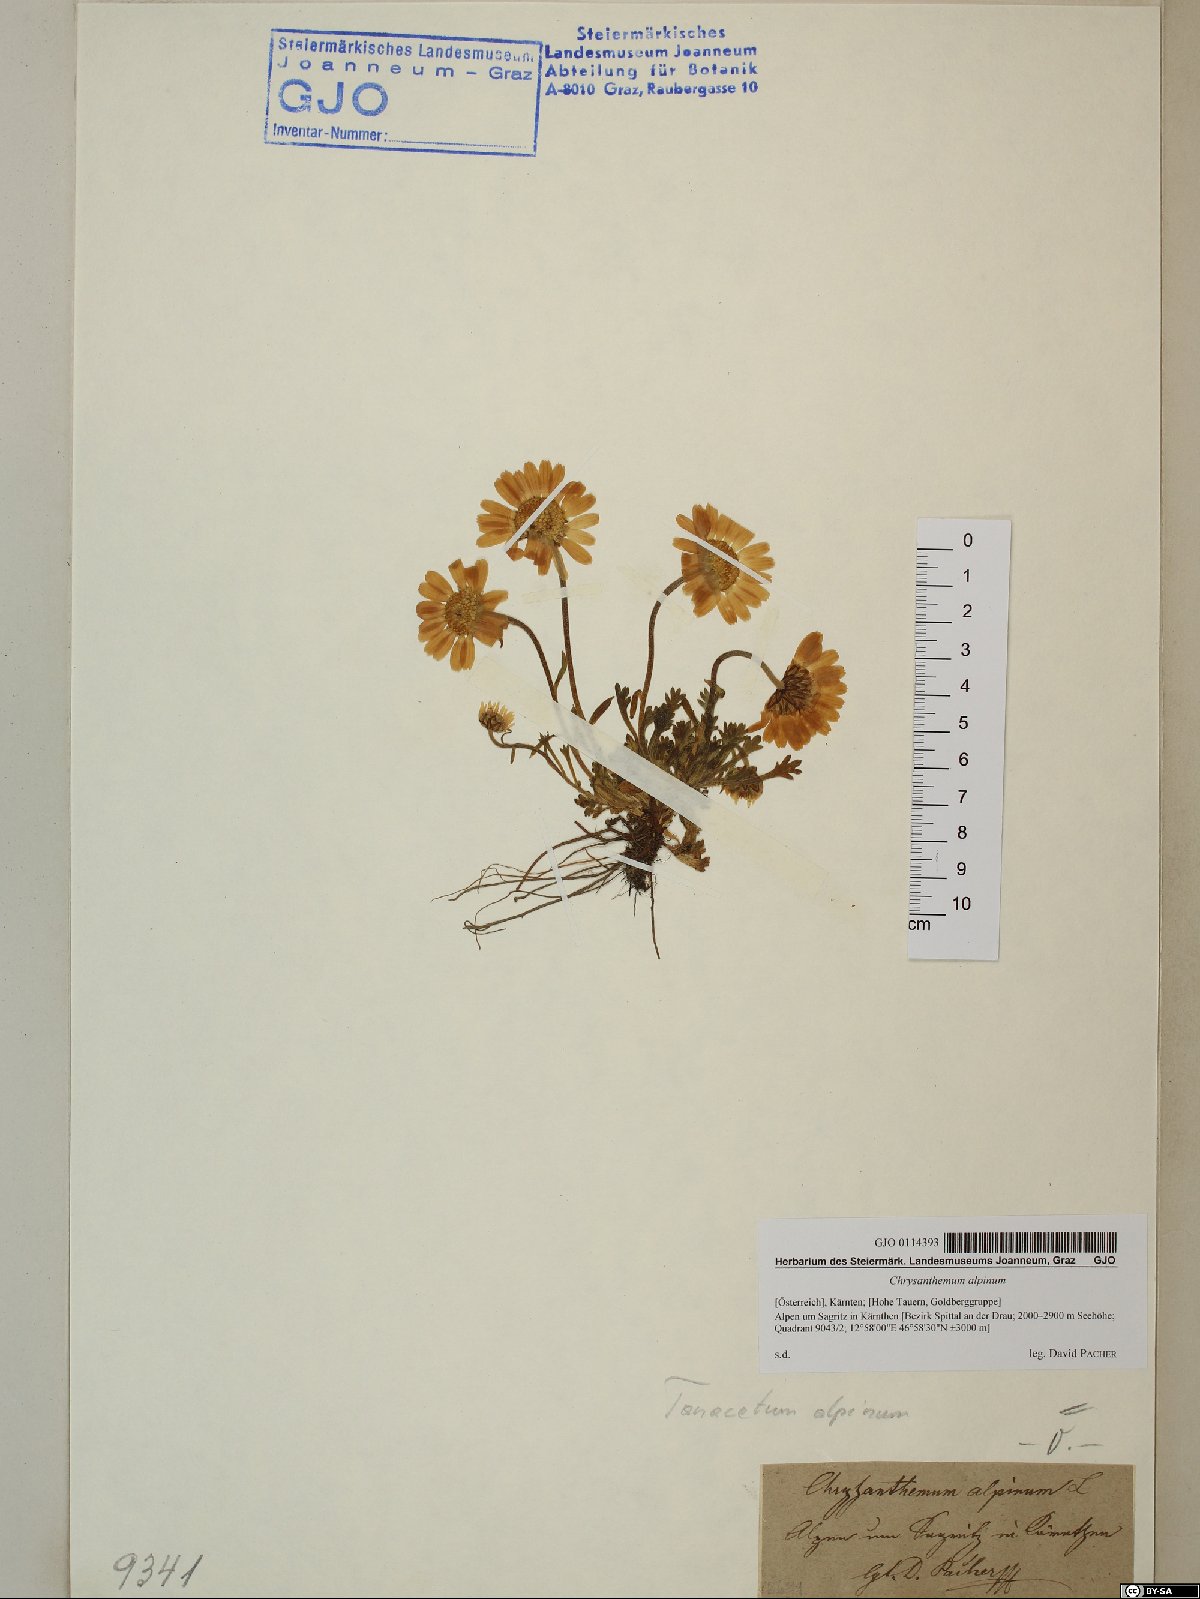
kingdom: Plantae
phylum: Tracheophyta
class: Magnoliopsida
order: Asterales
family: Asteraceae
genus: Leucanthemopsis
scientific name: Leucanthemopsis alpina
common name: Alpine moon daisy
